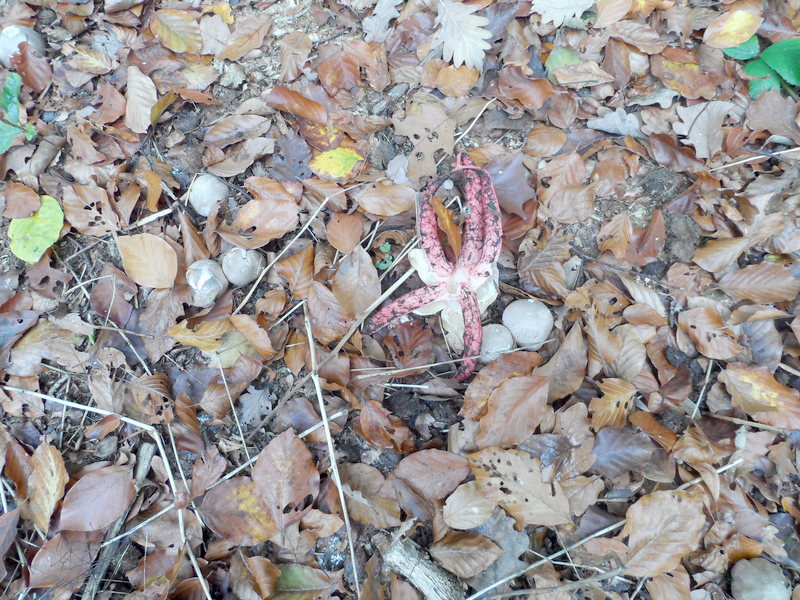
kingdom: Fungi
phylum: Basidiomycota
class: Agaricomycetes
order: Phallales
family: Phallaceae
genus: Clathrus
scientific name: Clathrus archeri
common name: Devil's fingers
